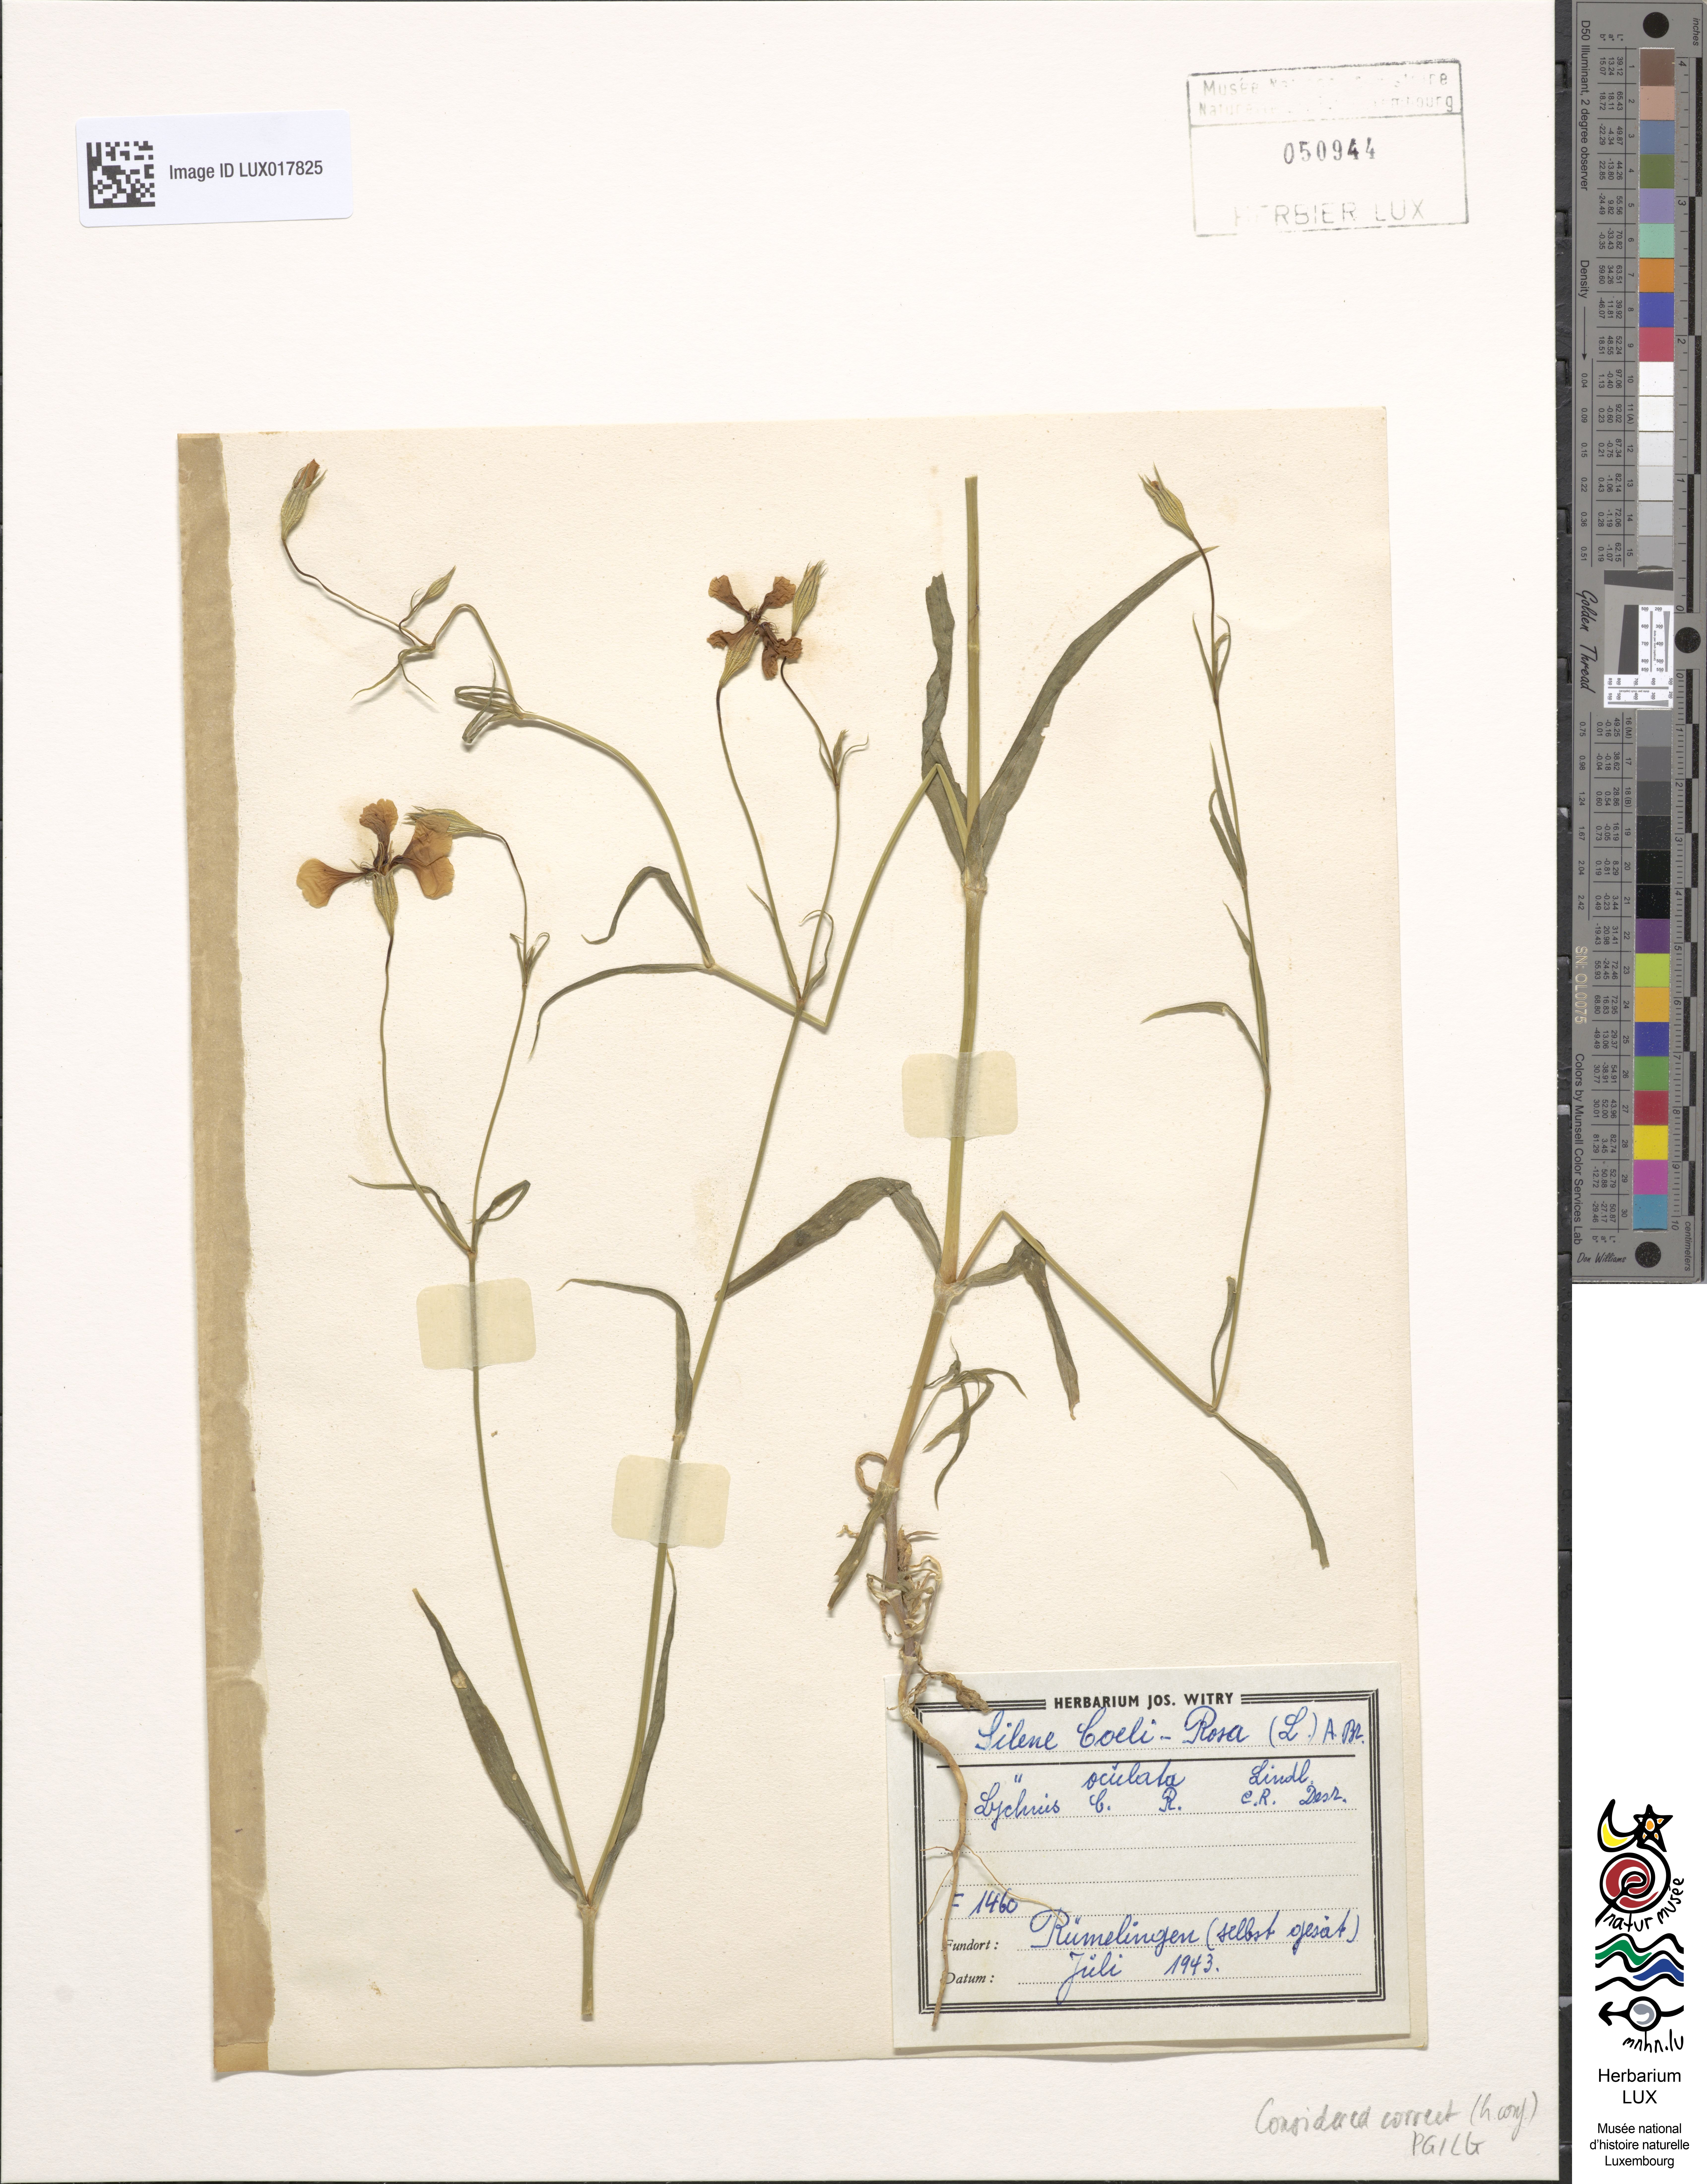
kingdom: Plantae
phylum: Tracheophyta
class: Magnoliopsida
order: Caryophyllales
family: Caryophyllaceae
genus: Eudianthe
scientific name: Eudianthe coeli-rosa
